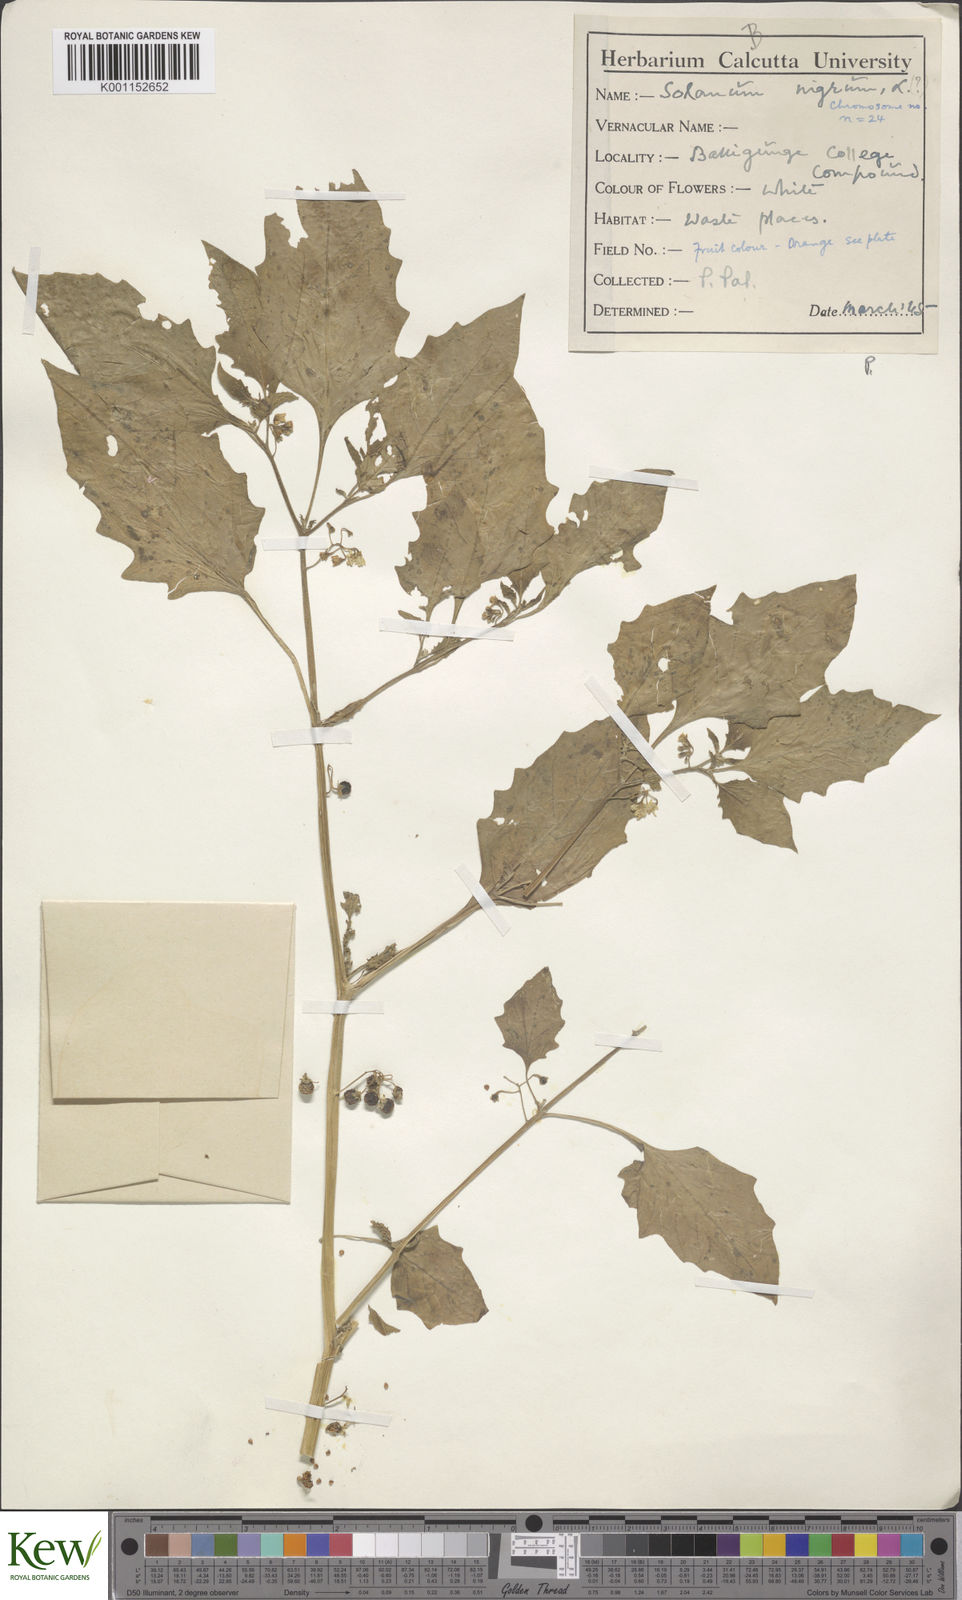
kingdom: Plantae
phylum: Tracheophyta
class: Magnoliopsida
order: Solanales
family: Solanaceae
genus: Solanum
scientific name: Solanum nigrum
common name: Black nightshade
